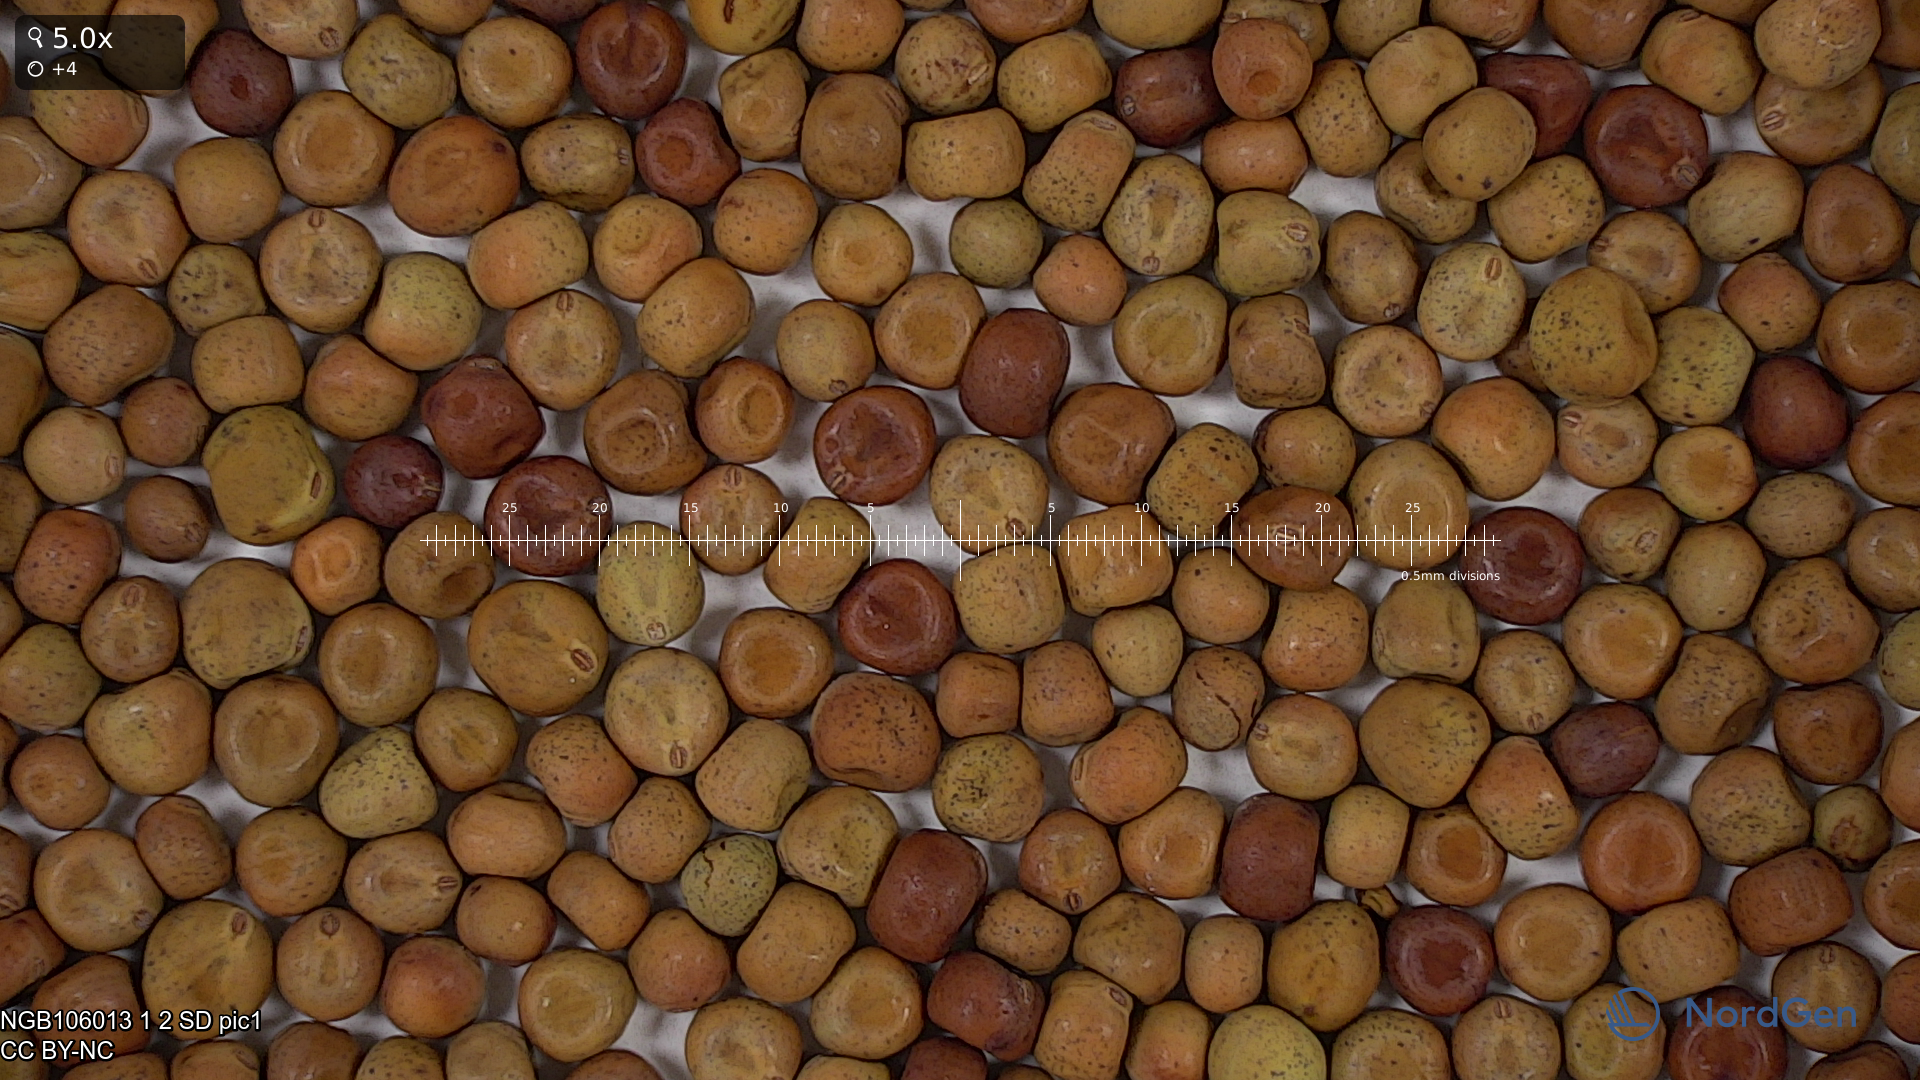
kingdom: Plantae
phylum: Tracheophyta
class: Magnoliopsida
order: Fabales
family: Fabaceae
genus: Lathyrus
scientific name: Lathyrus oleraceus
